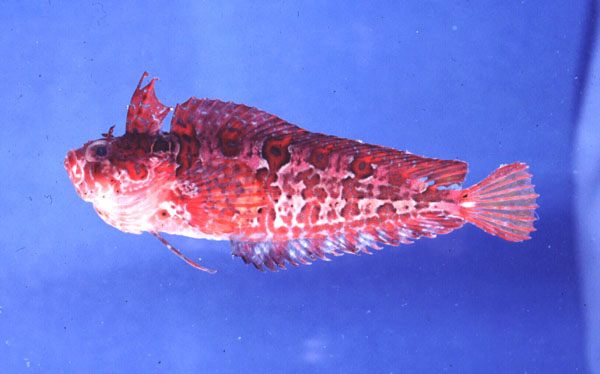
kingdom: Animalia
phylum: Chordata
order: Perciformes
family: Clinidae
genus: Clinus
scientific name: Clinus woodi
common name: Oldman klipfish
